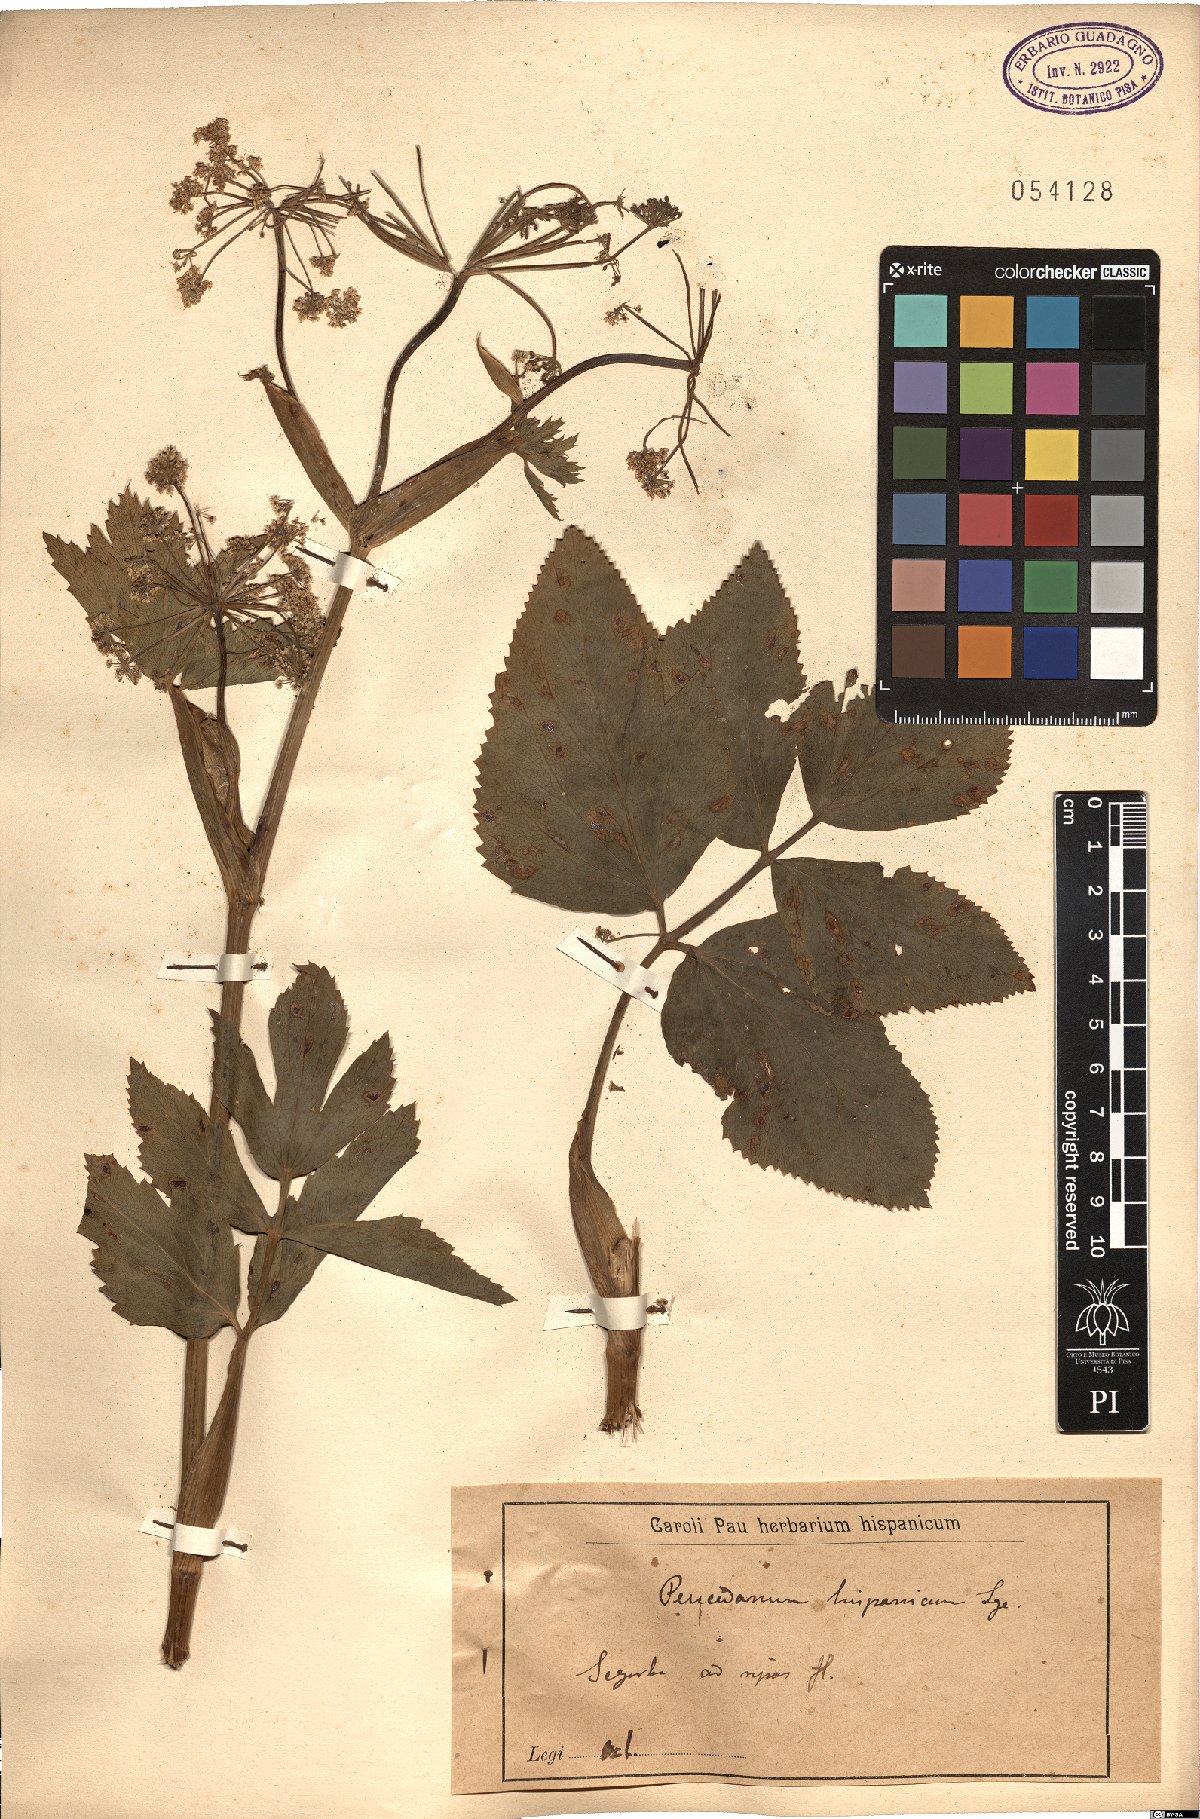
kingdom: Plantae
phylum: Tracheophyta
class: Magnoliopsida
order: Apiales
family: Apiaceae
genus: Imperatoria
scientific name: Imperatoria hispanica
